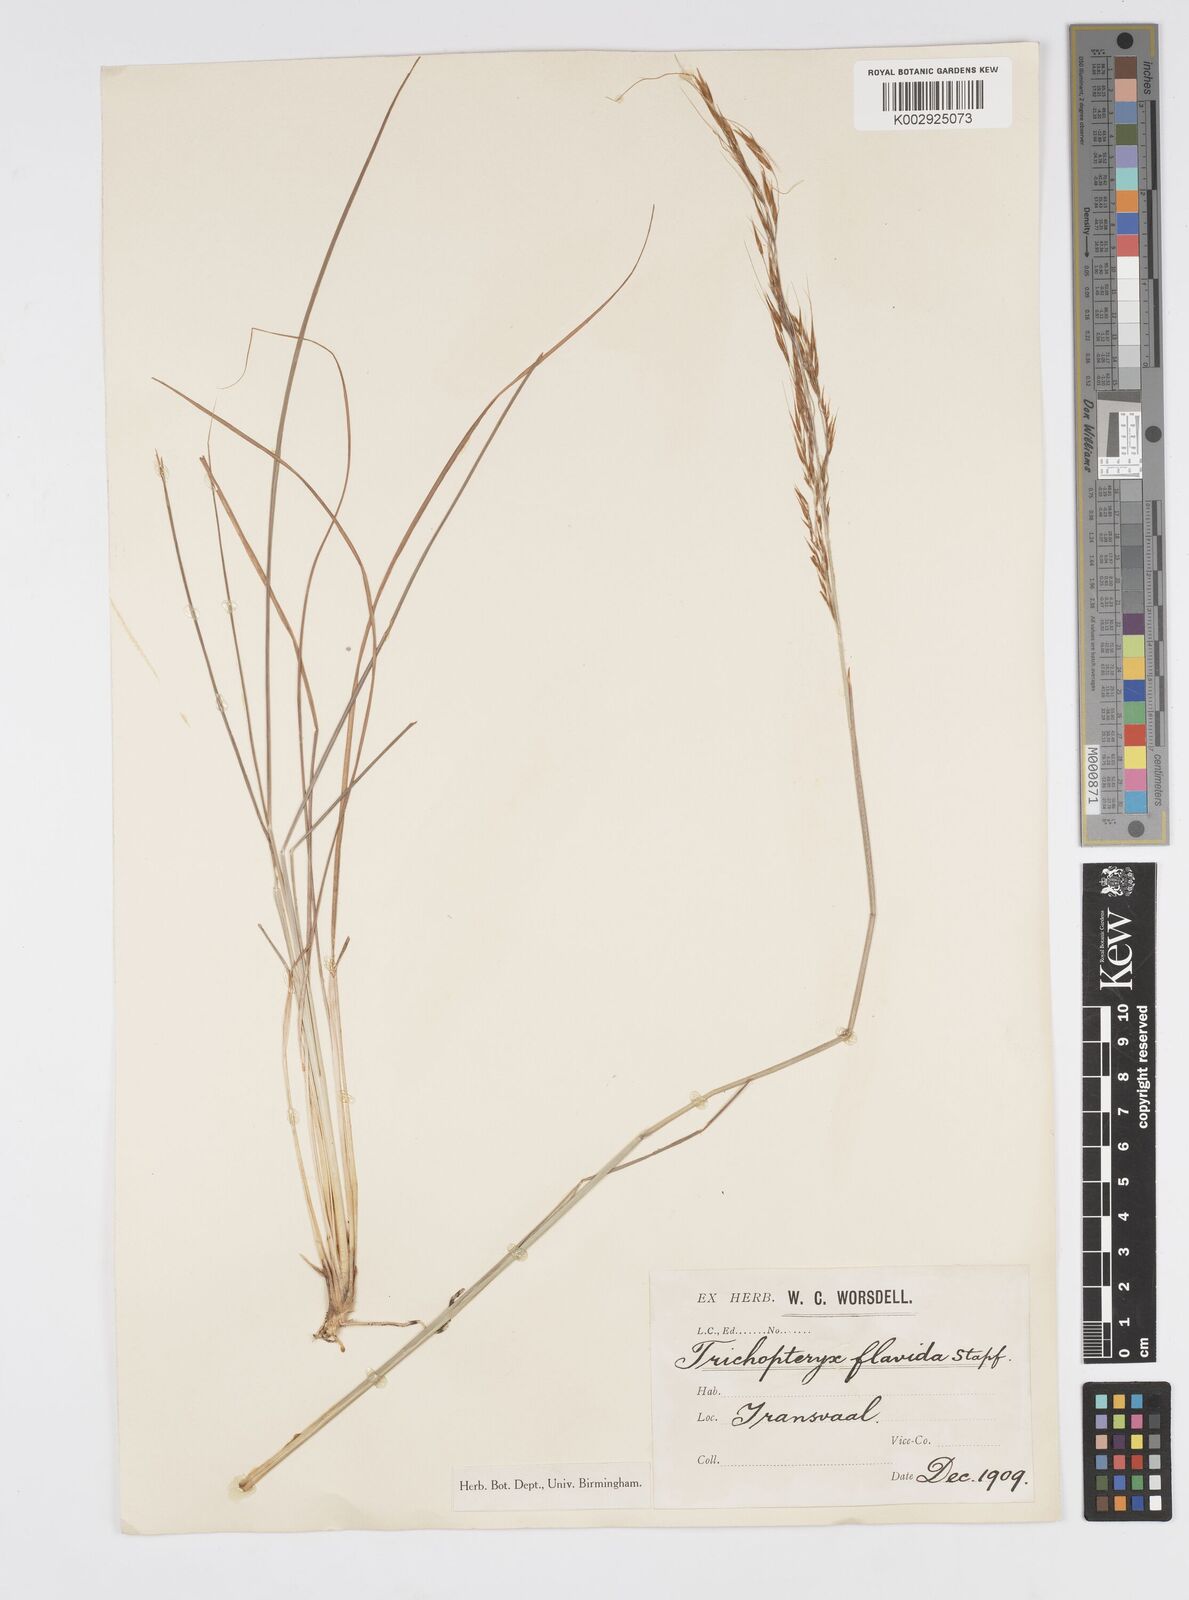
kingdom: Plantae
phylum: Tracheophyta
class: Liliopsida
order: Poales
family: Poaceae
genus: Loudetia
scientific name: Loudetia flavida
